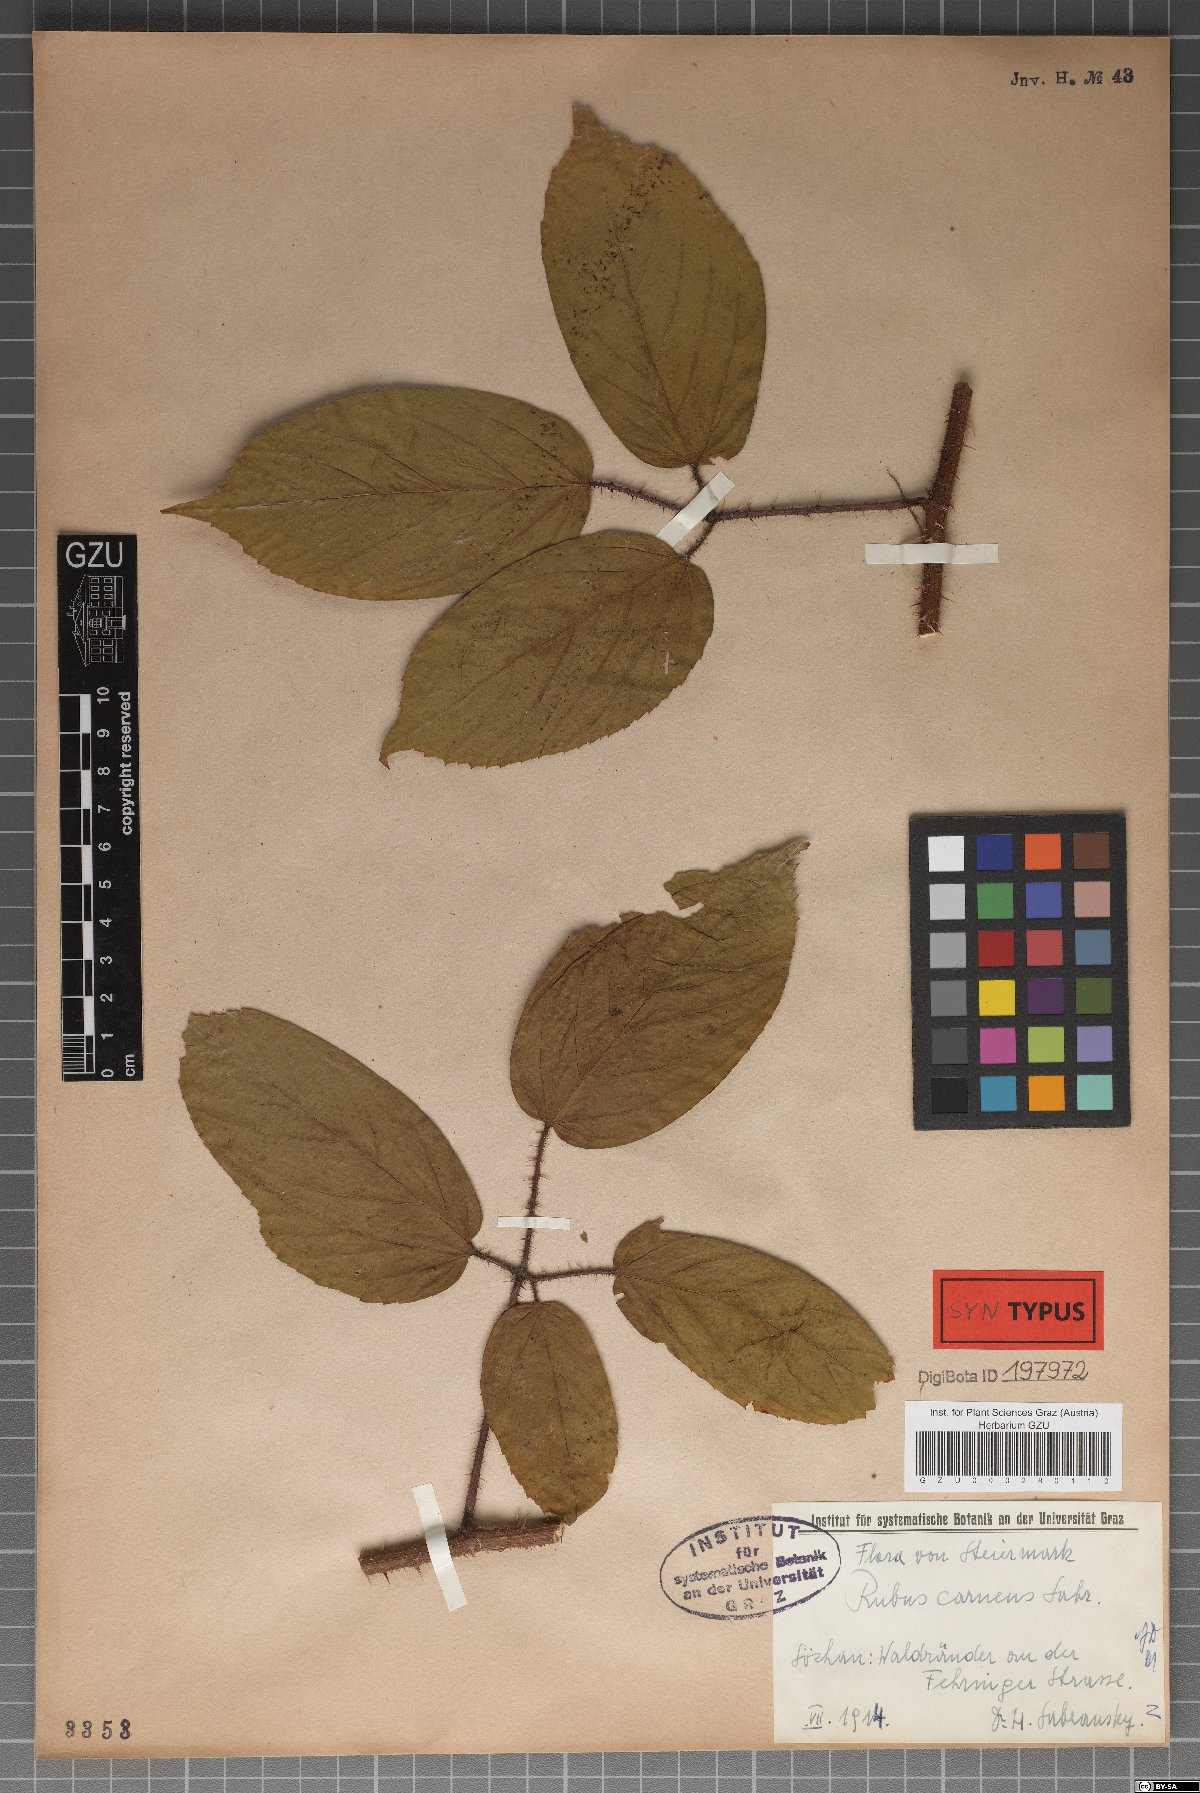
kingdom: Plantae
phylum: Tracheophyta
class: Magnoliopsida
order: Rosales
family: Rosaceae
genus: Rubus
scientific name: Rubus carneus
